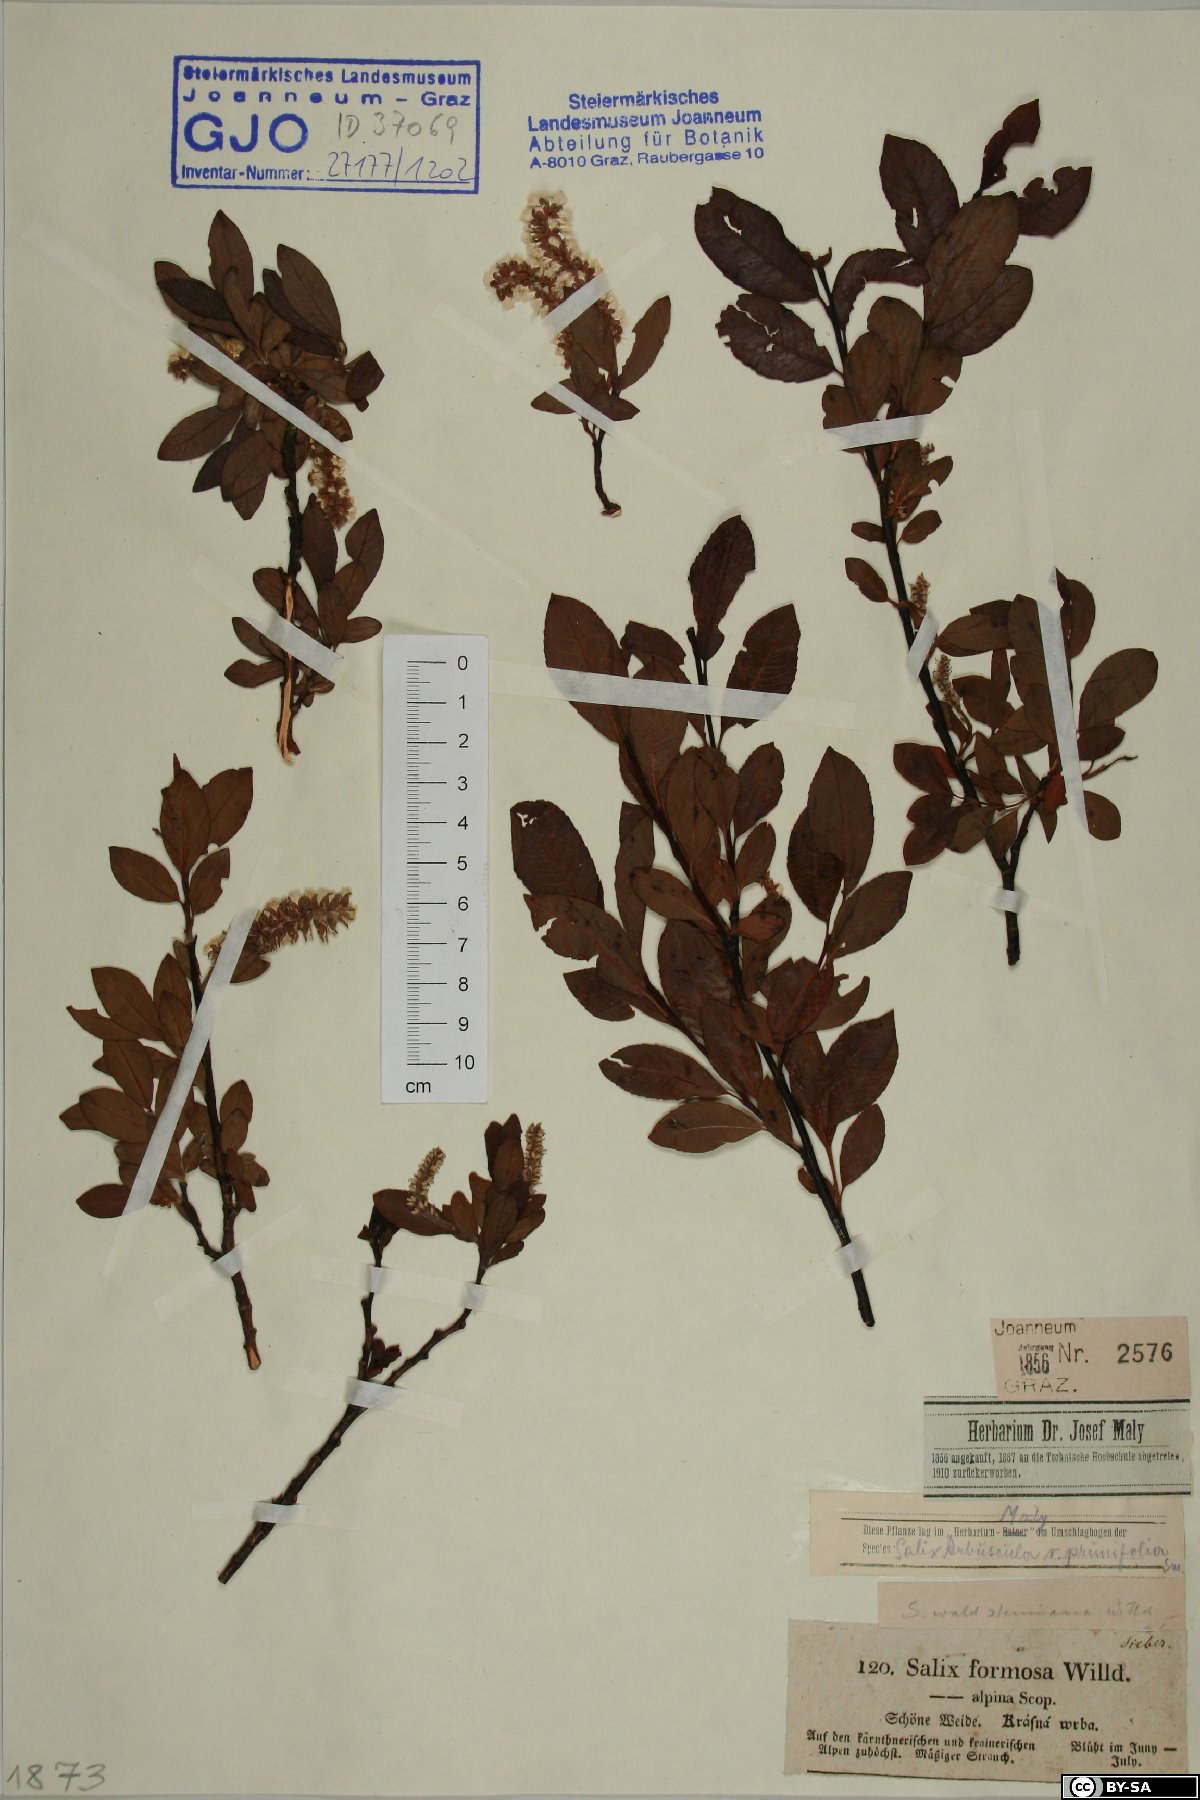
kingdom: Plantae
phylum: Tracheophyta
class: Magnoliopsida
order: Malpighiales
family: Salicaceae
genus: Salix
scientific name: Salix waldsteiniana
